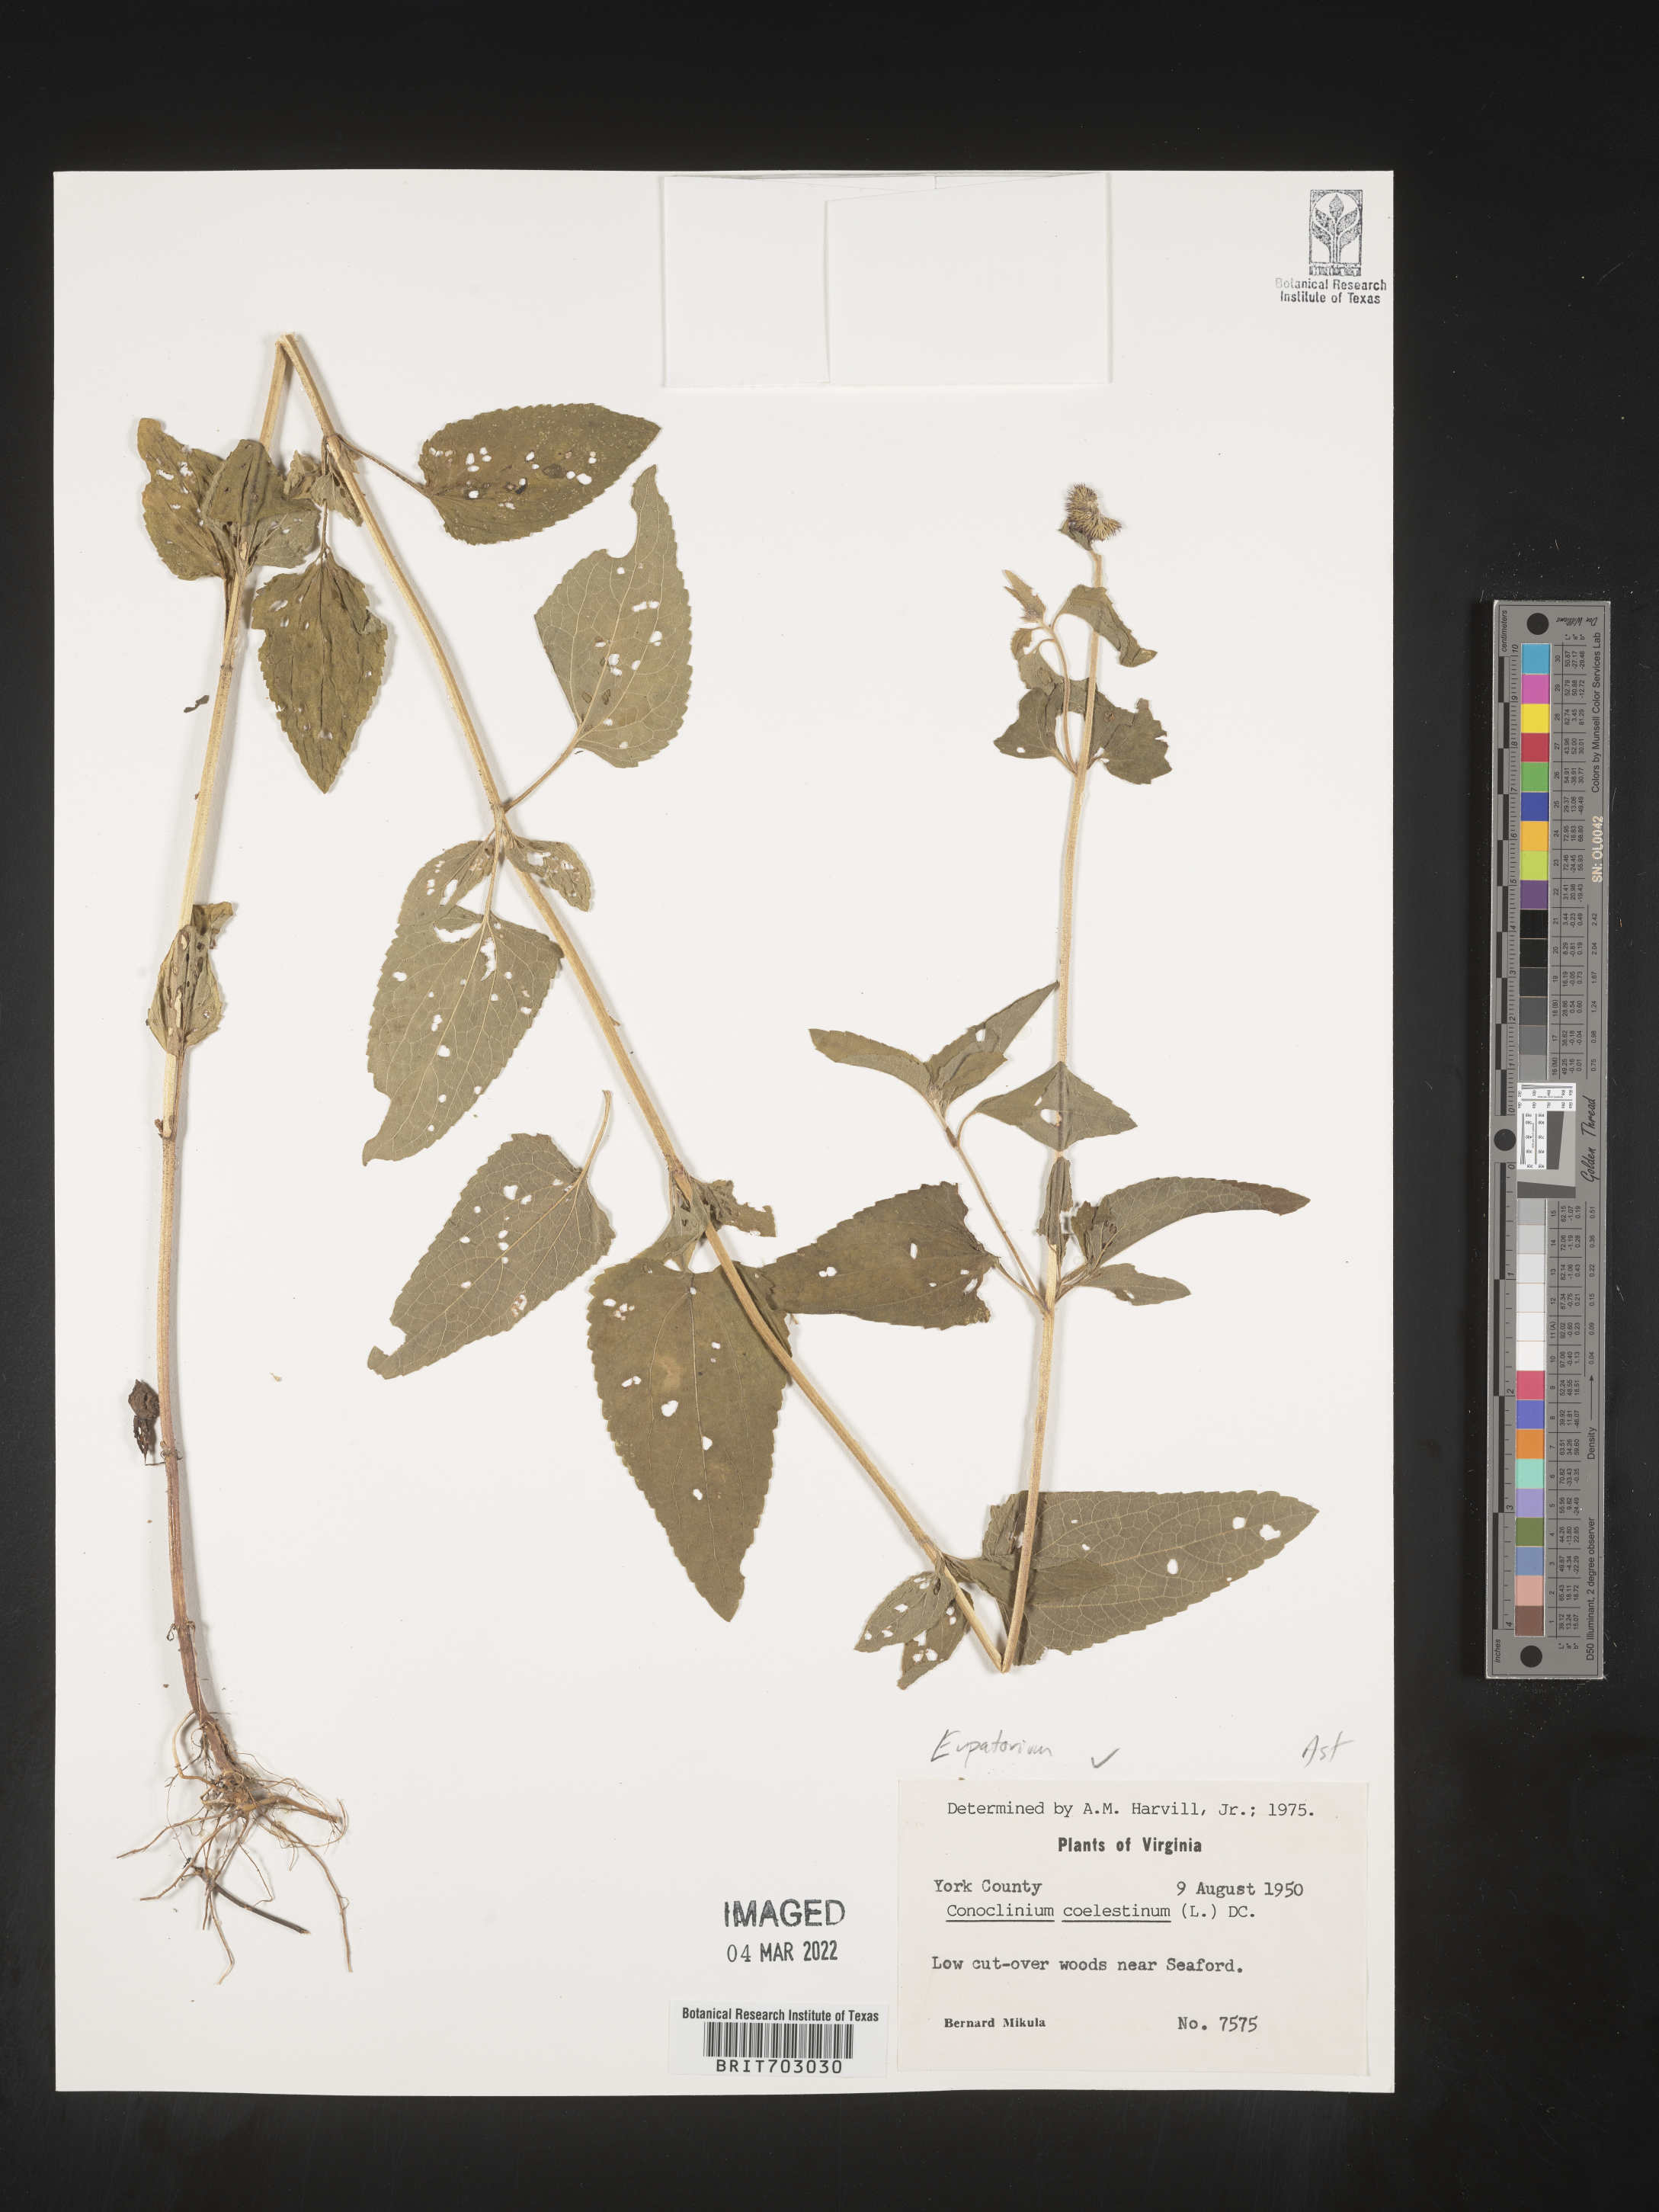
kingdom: Plantae
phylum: Tracheophyta
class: Magnoliopsida
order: Asterales
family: Asteraceae
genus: Eupatorium
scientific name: Eupatorium
